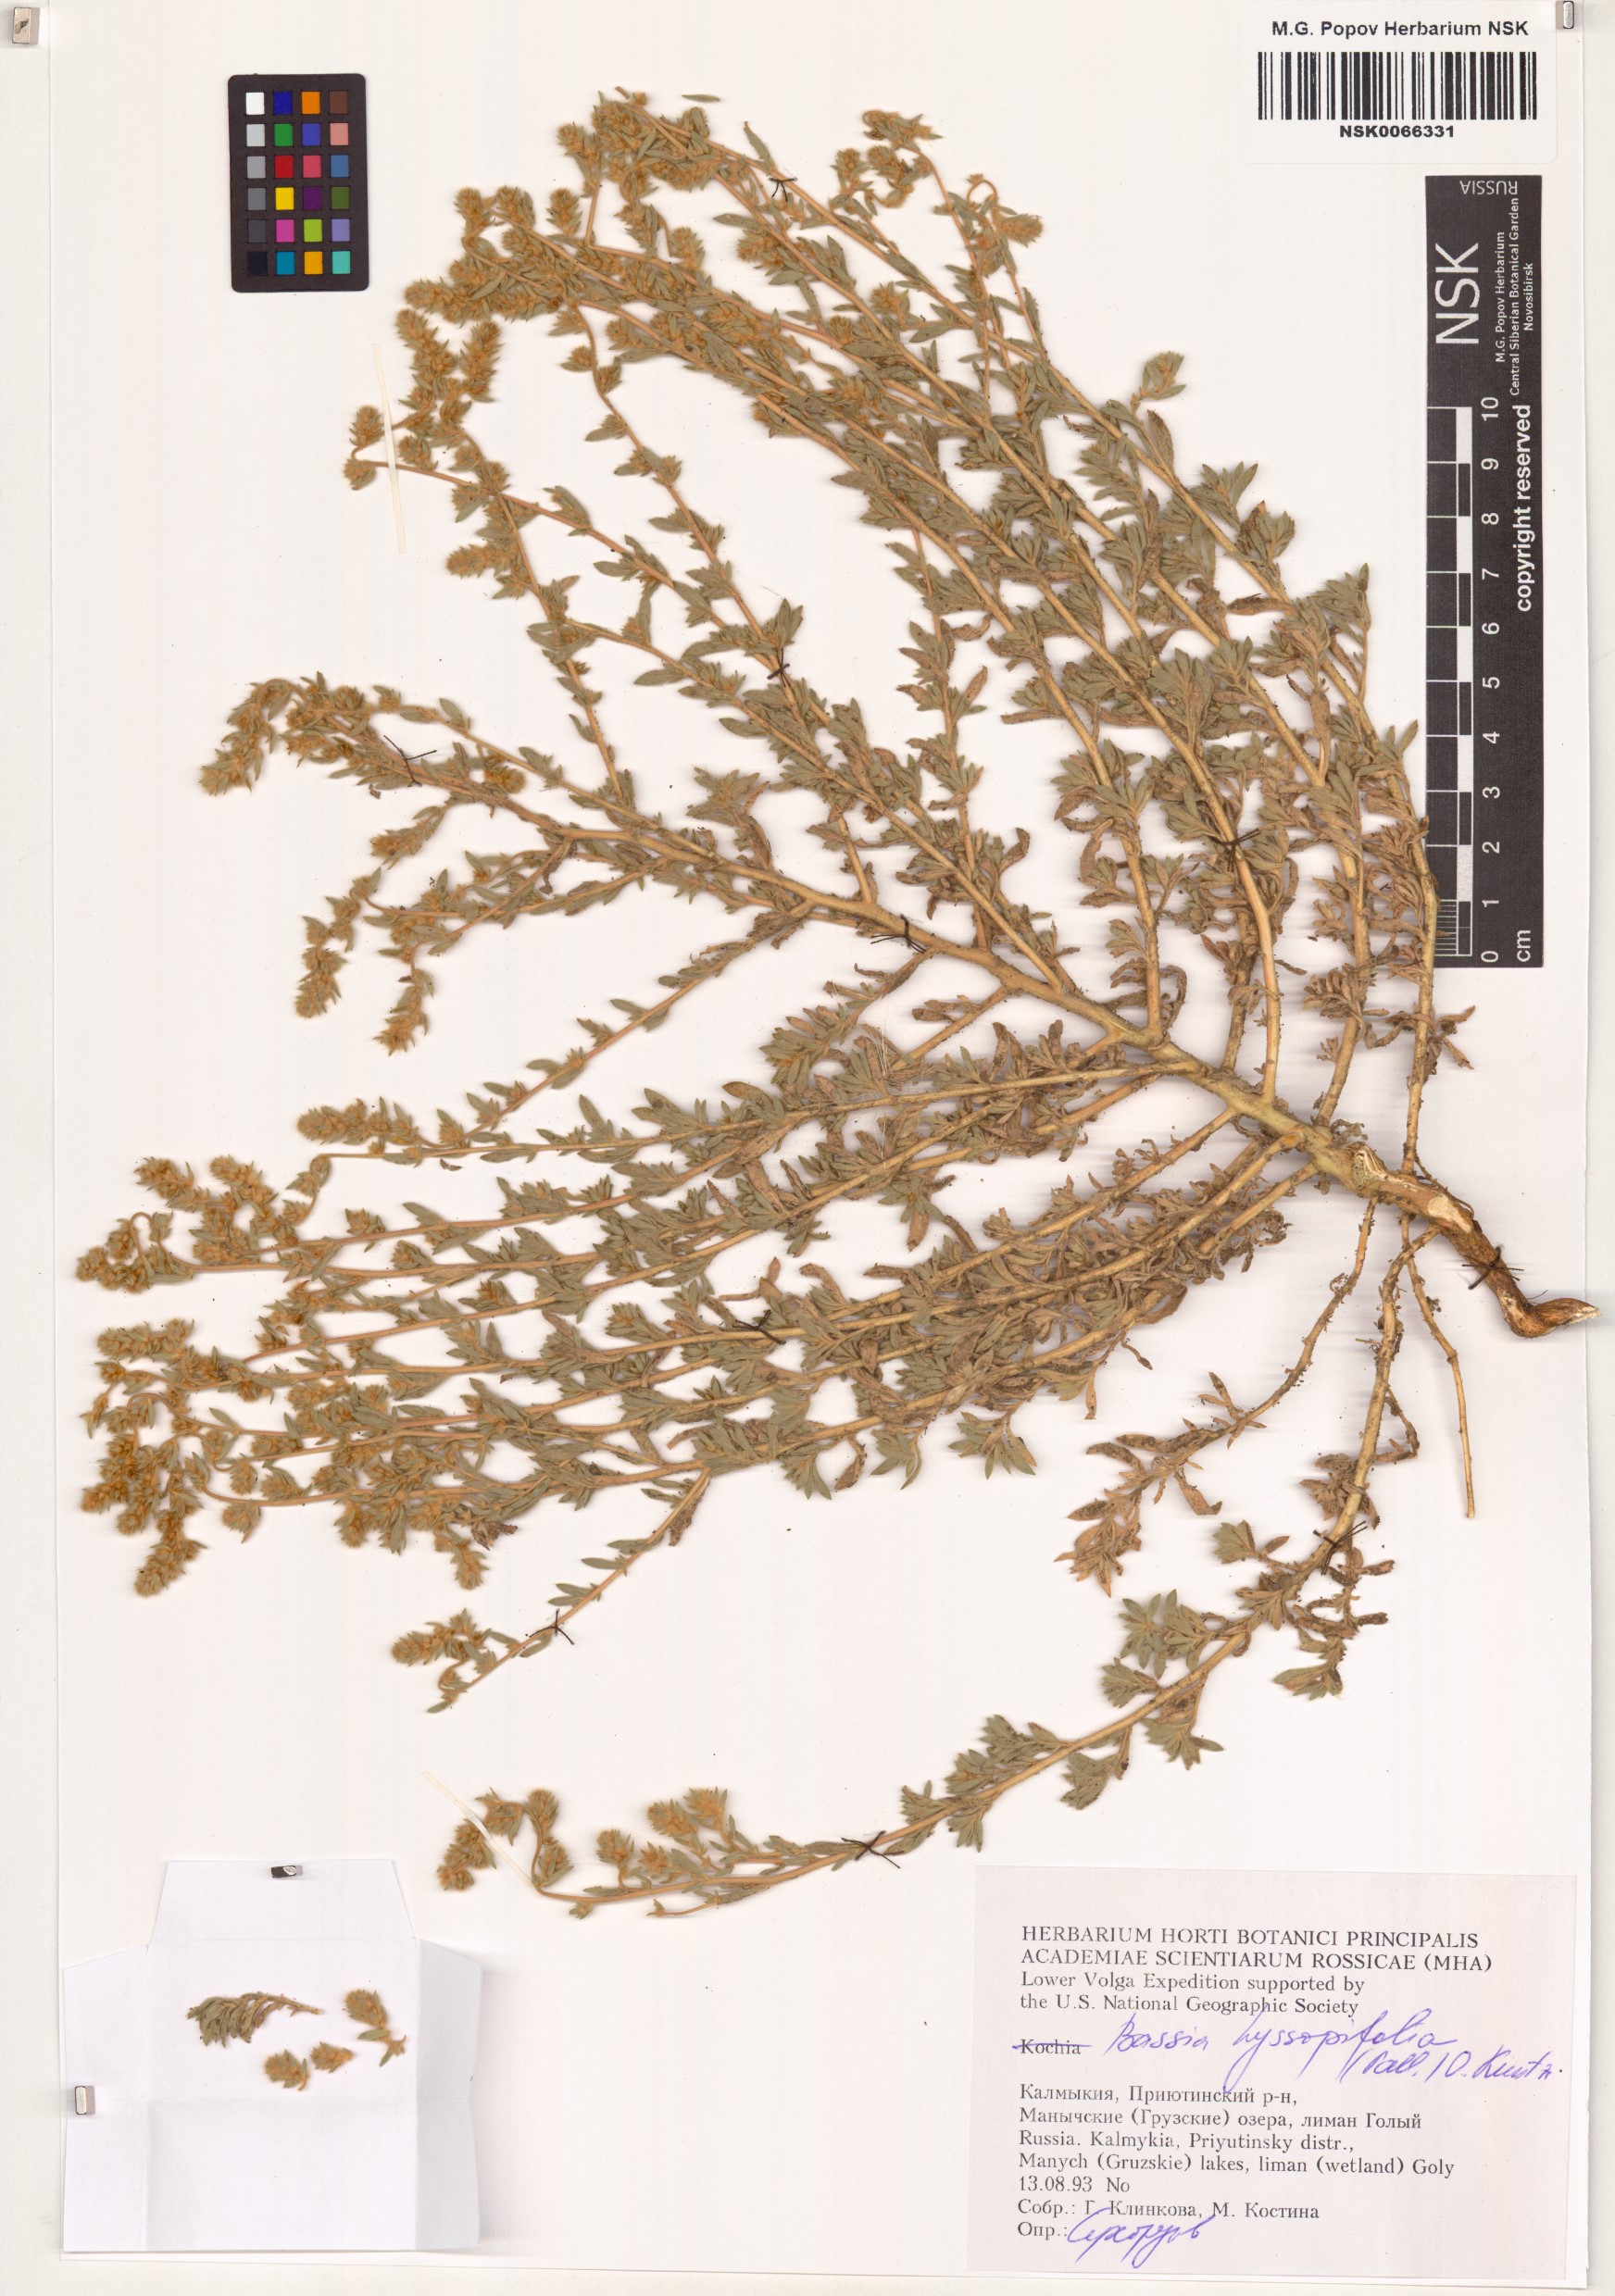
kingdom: Plantae
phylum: Tracheophyta
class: Magnoliopsida
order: Caryophyllales
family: Amaranthaceae
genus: Bassia
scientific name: Bassia hyssopifolia
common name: Fivehorn smotherweed
